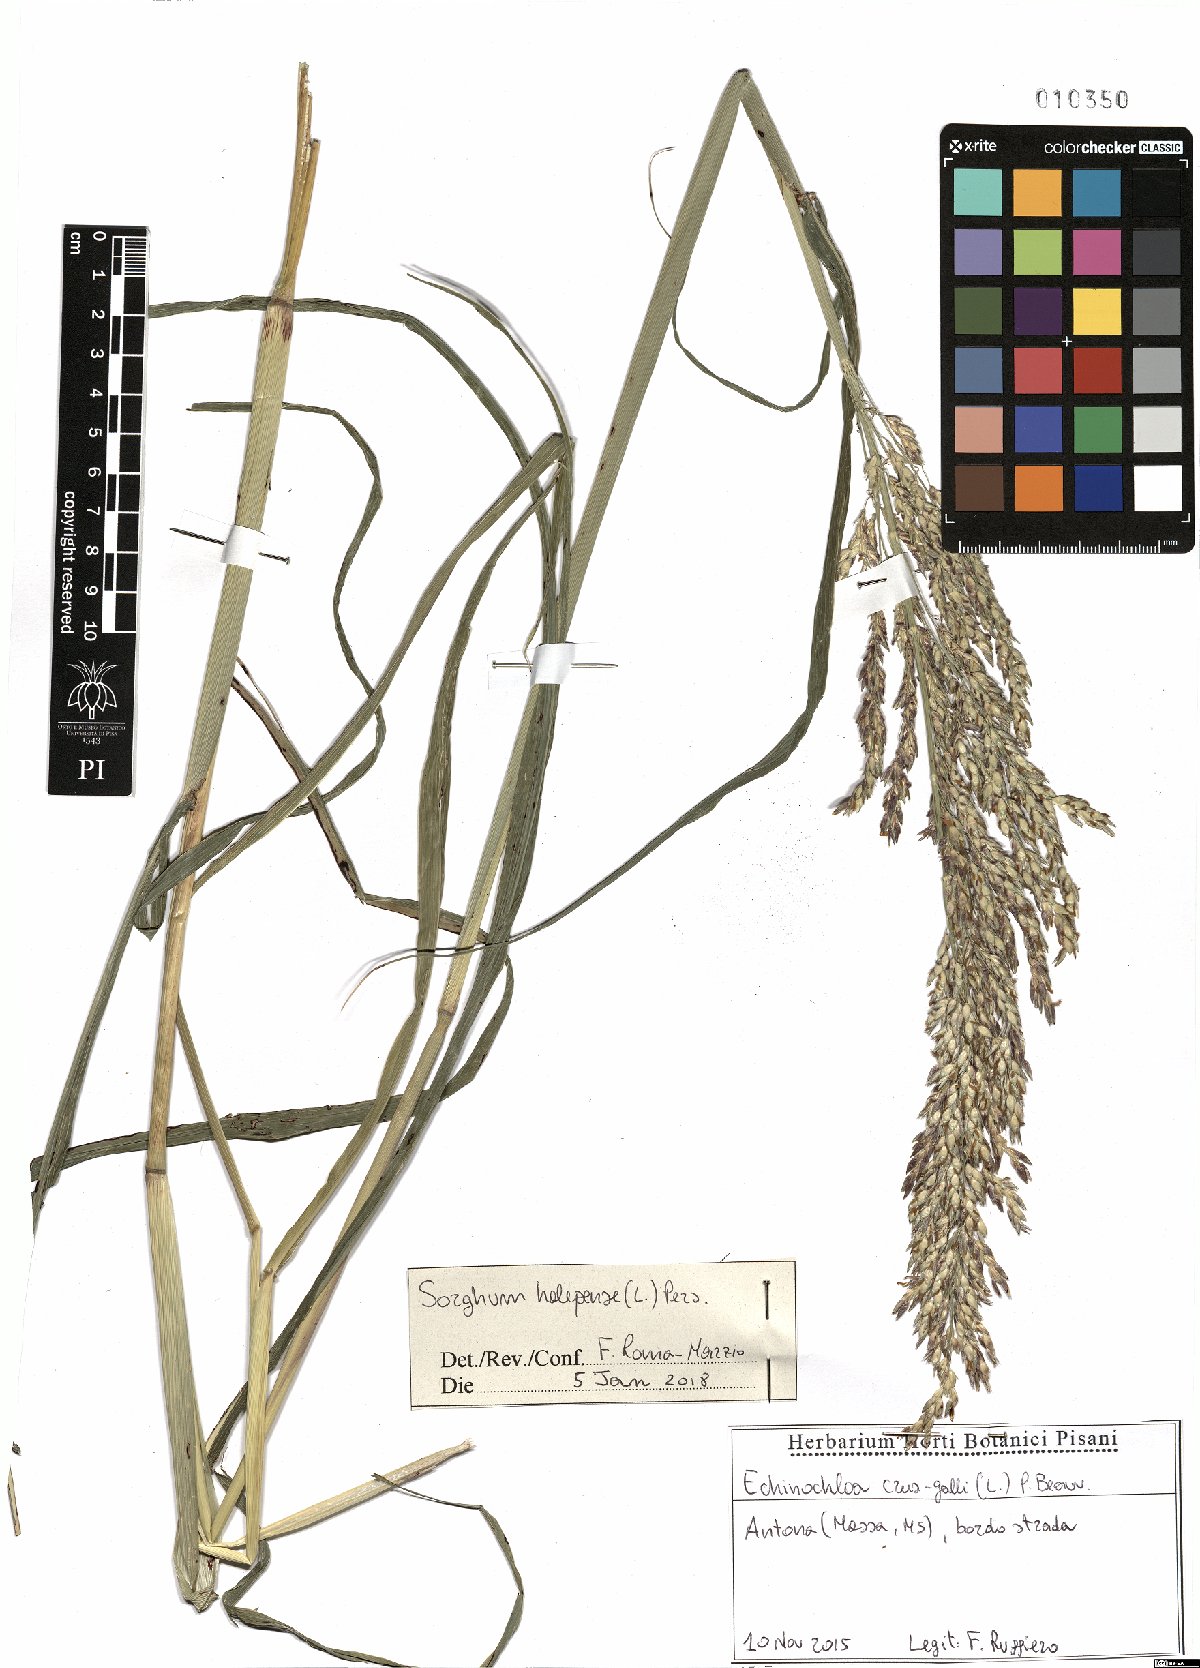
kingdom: Plantae
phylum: Tracheophyta
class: Liliopsida
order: Poales
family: Poaceae
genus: Sorghum
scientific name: Sorghum halepense
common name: Johnson-grass
